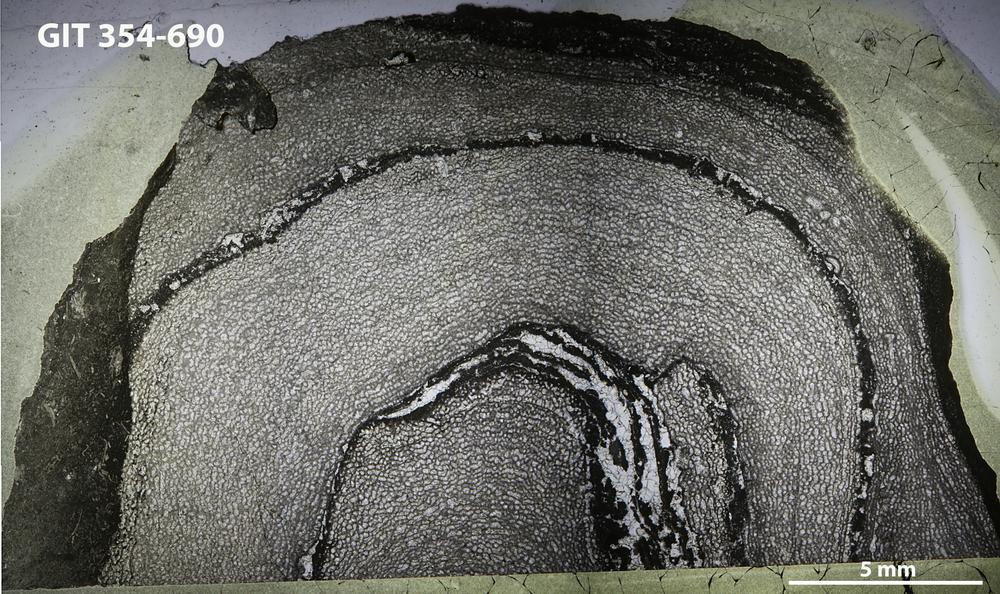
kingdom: Animalia
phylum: Porifera
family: Ecclimadictyidae
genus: Ecclimadictyon
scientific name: Ecclimadictyon
